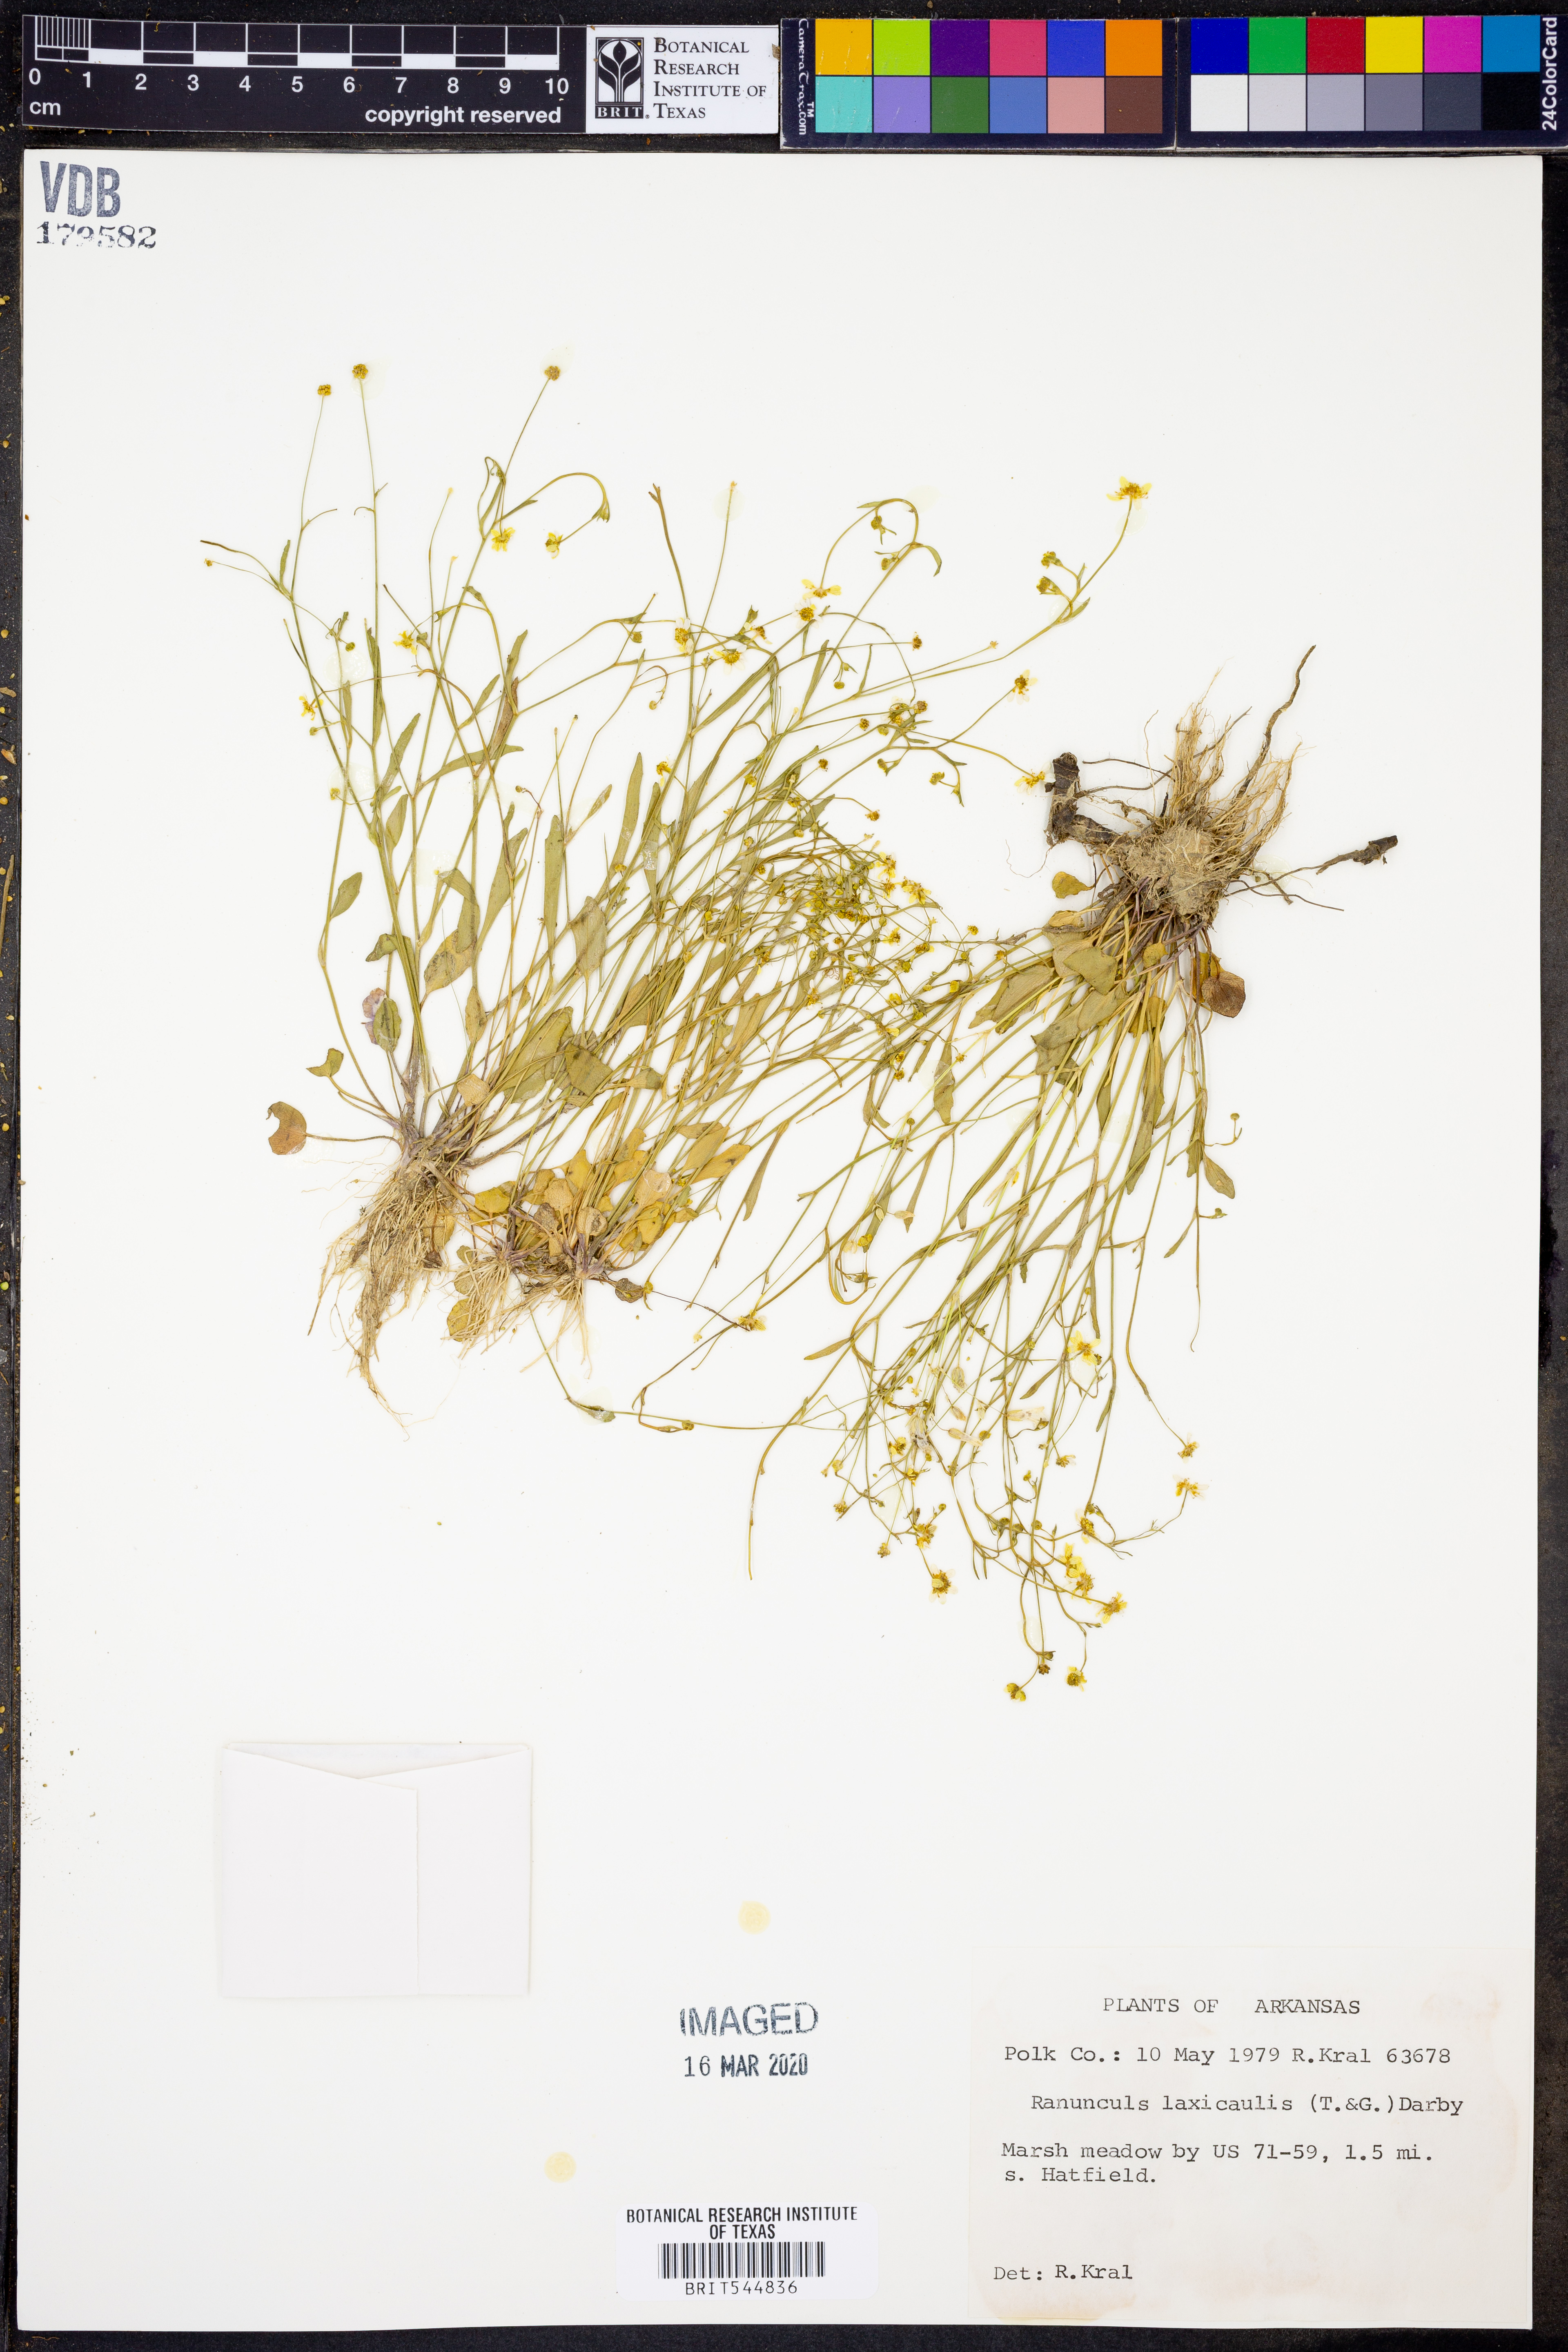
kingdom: Plantae
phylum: Tracheophyta
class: Magnoliopsida
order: Ranunculales
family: Ranunculaceae
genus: Ranunculus
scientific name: Ranunculus laxicaulis
